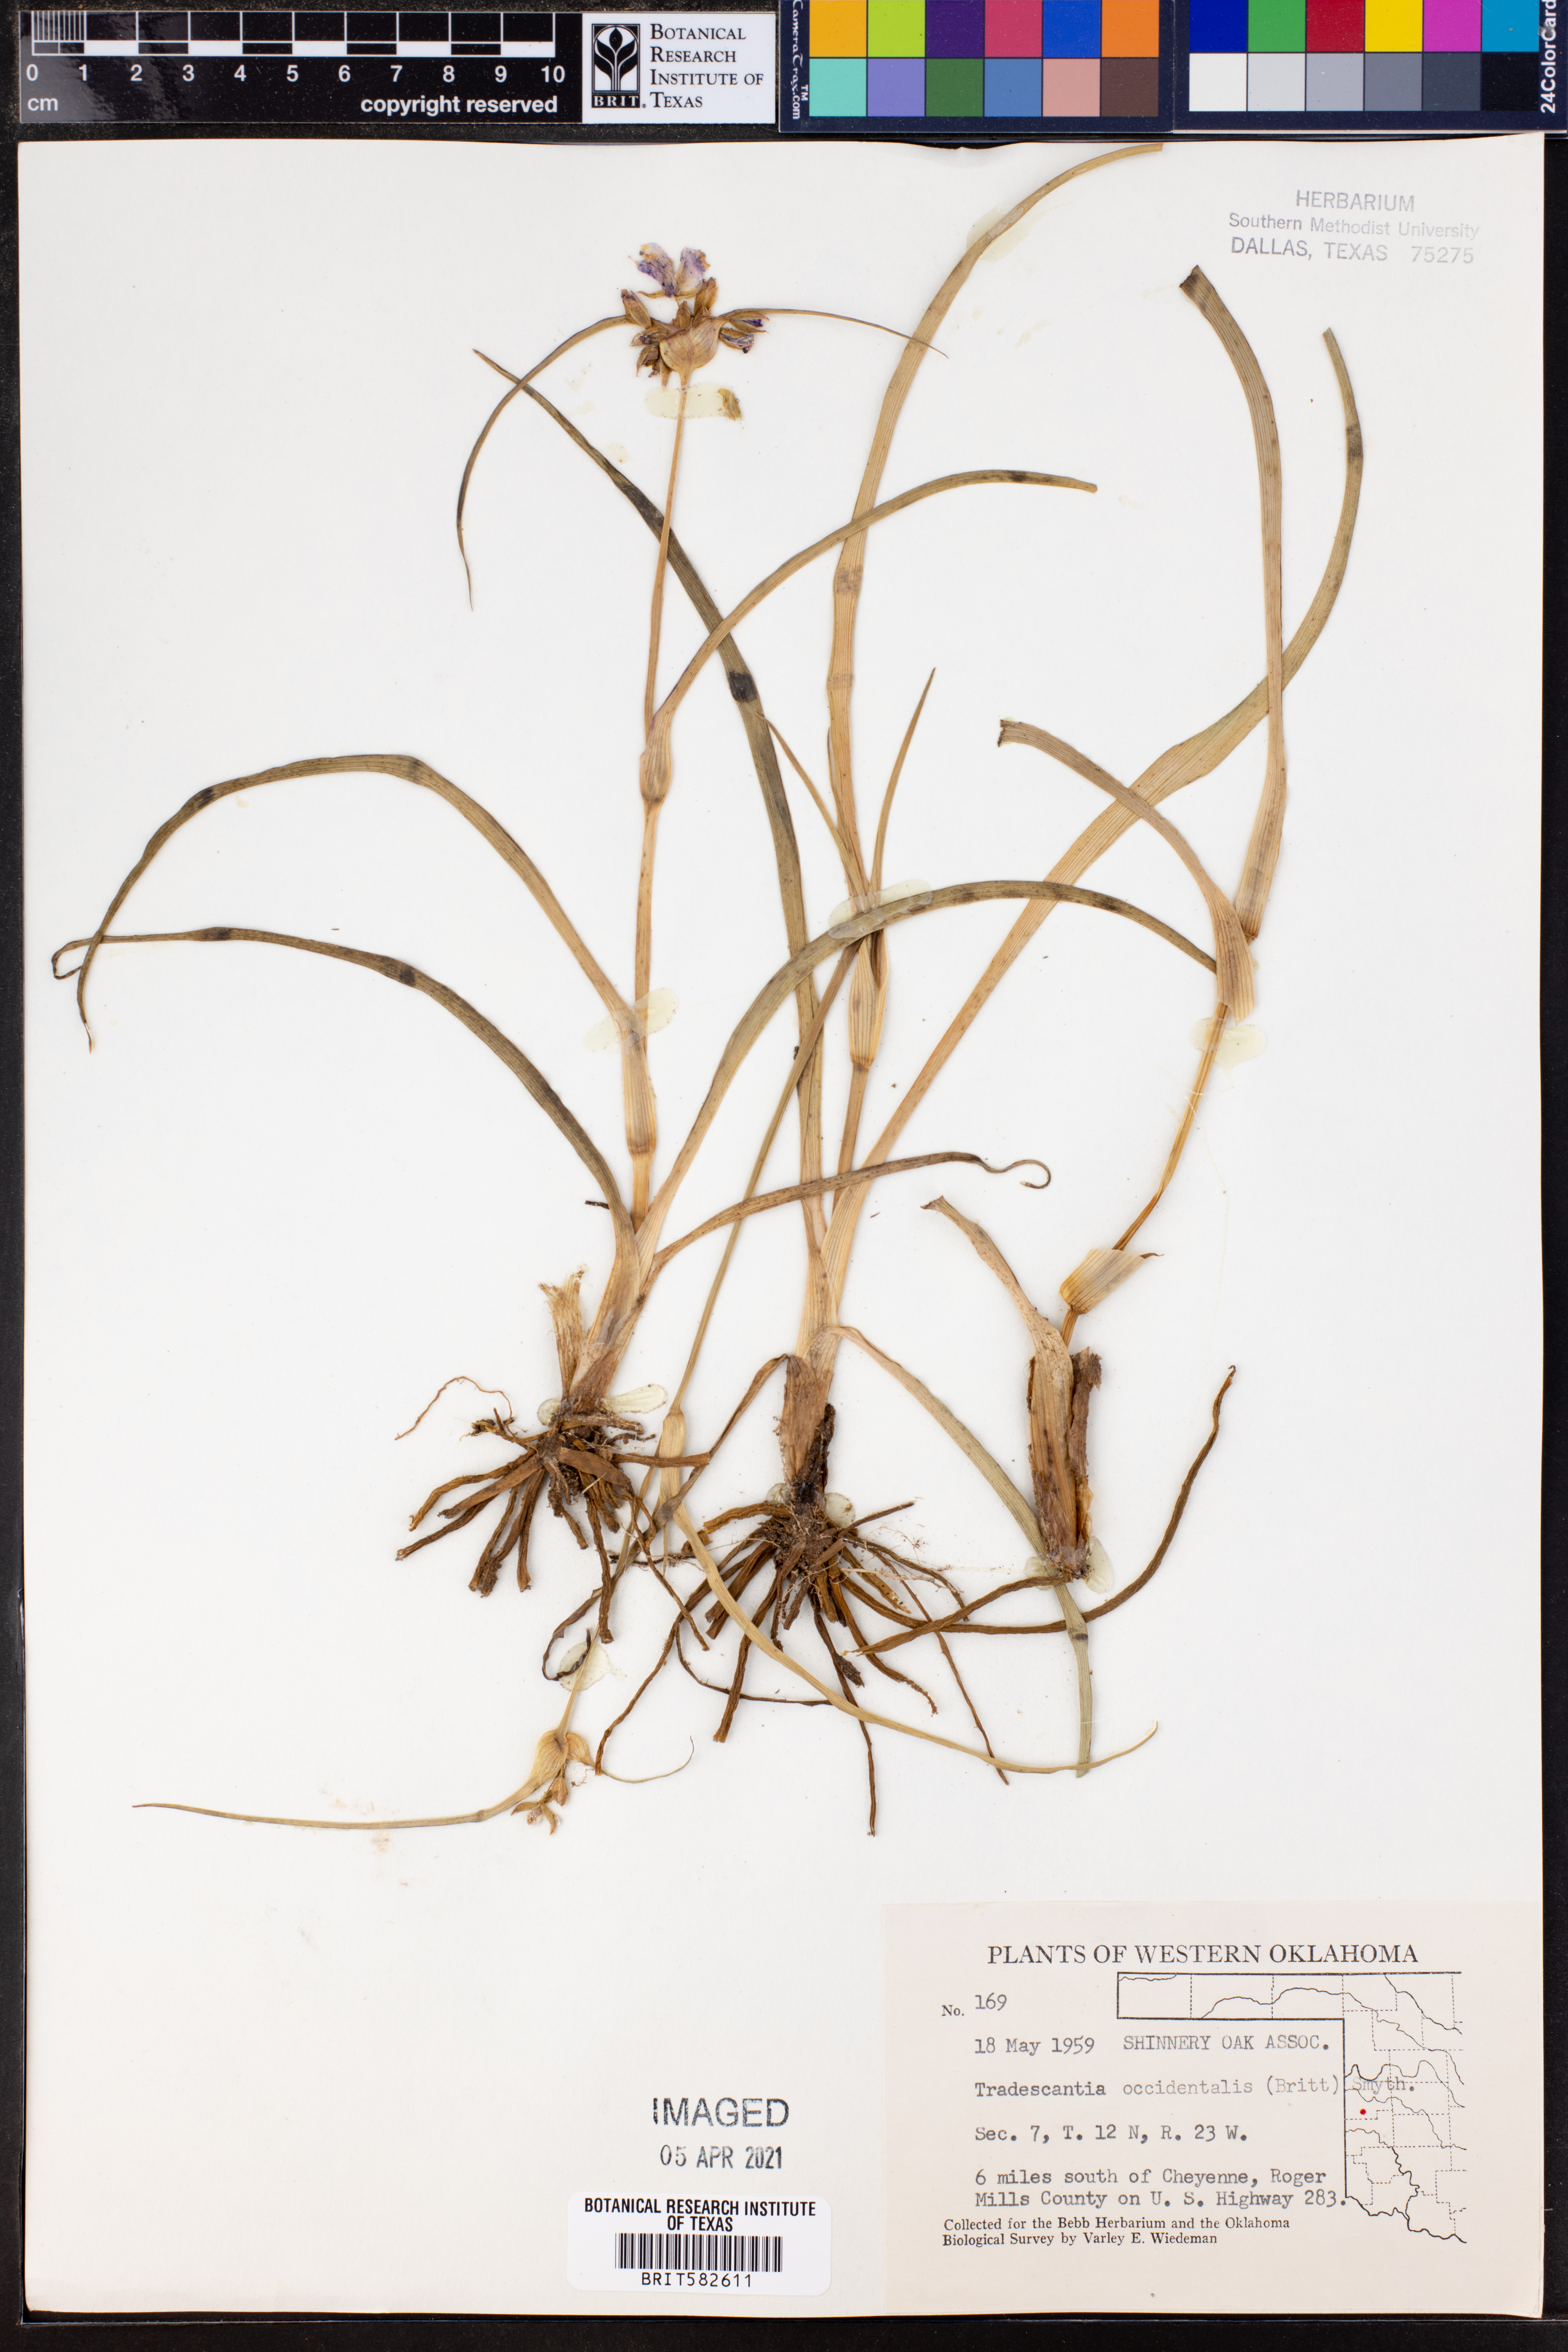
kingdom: Plantae
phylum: Tracheophyta
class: Liliopsida
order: Commelinales
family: Commelinaceae
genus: Tradescantia
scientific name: Tradescantia occidentalis
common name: Prairie spiderwort
